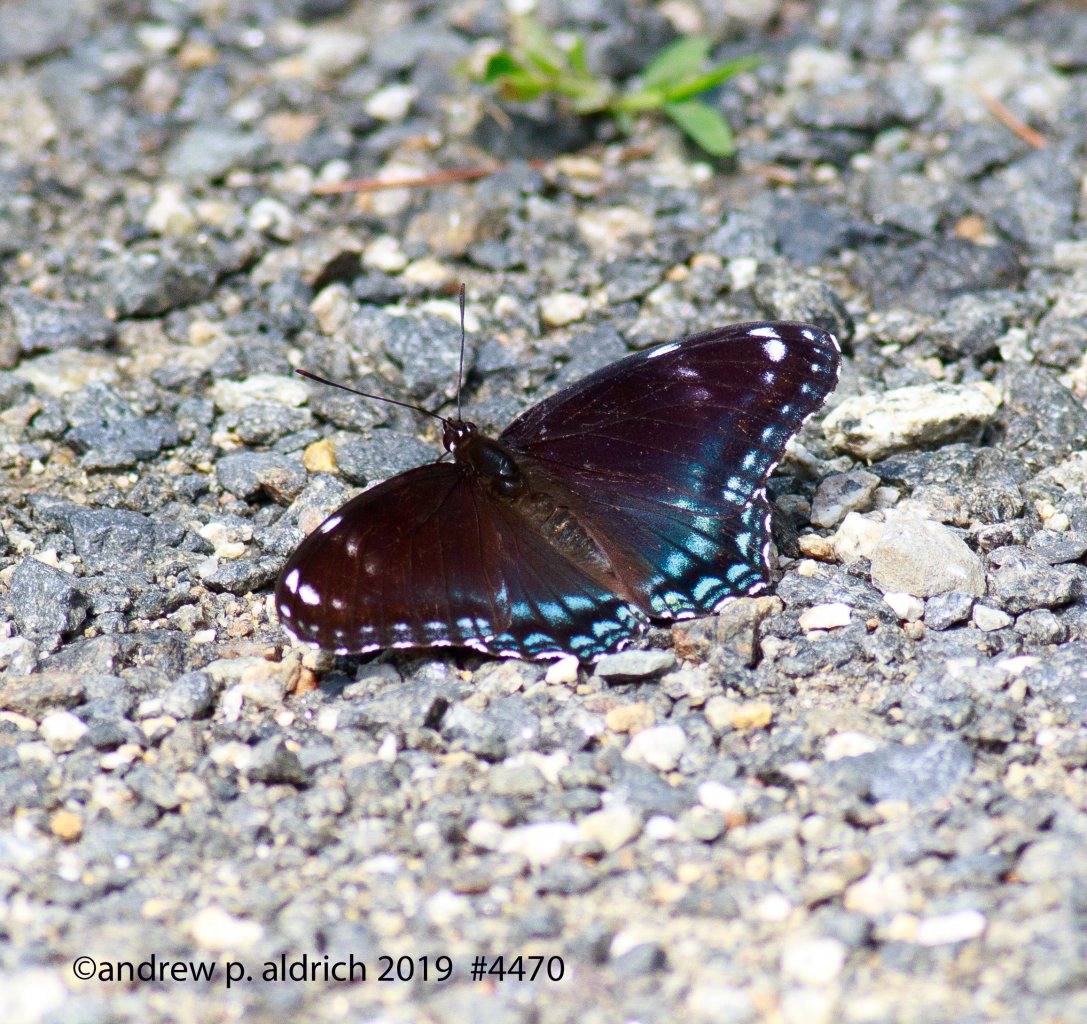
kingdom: Animalia
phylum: Arthropoda
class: Insecta
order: Lepidoptera
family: Nymphalidae
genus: Limenitis
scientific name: Limenitis
